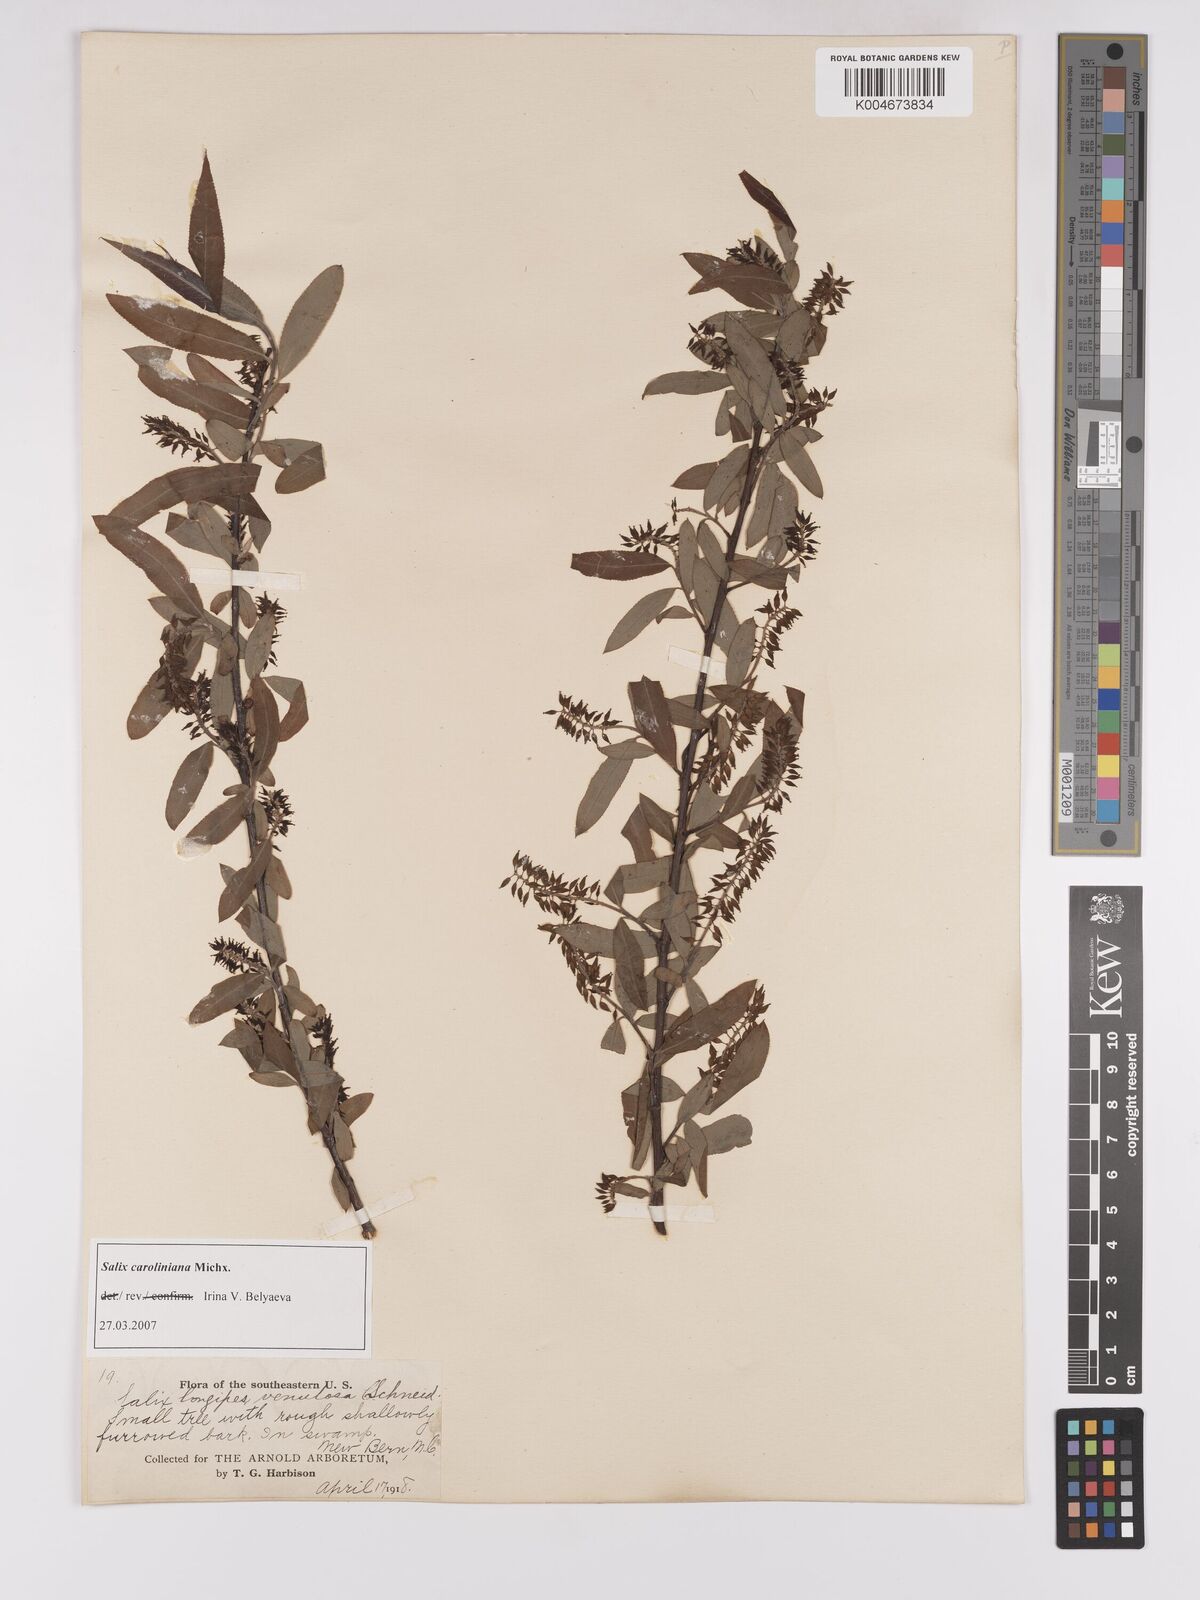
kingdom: Plantae
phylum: Tracheophyta
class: Magnoliopsida
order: Malpighiales
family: Salicaceae
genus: Salix
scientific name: Salix caroliniana
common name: Carolina willow
